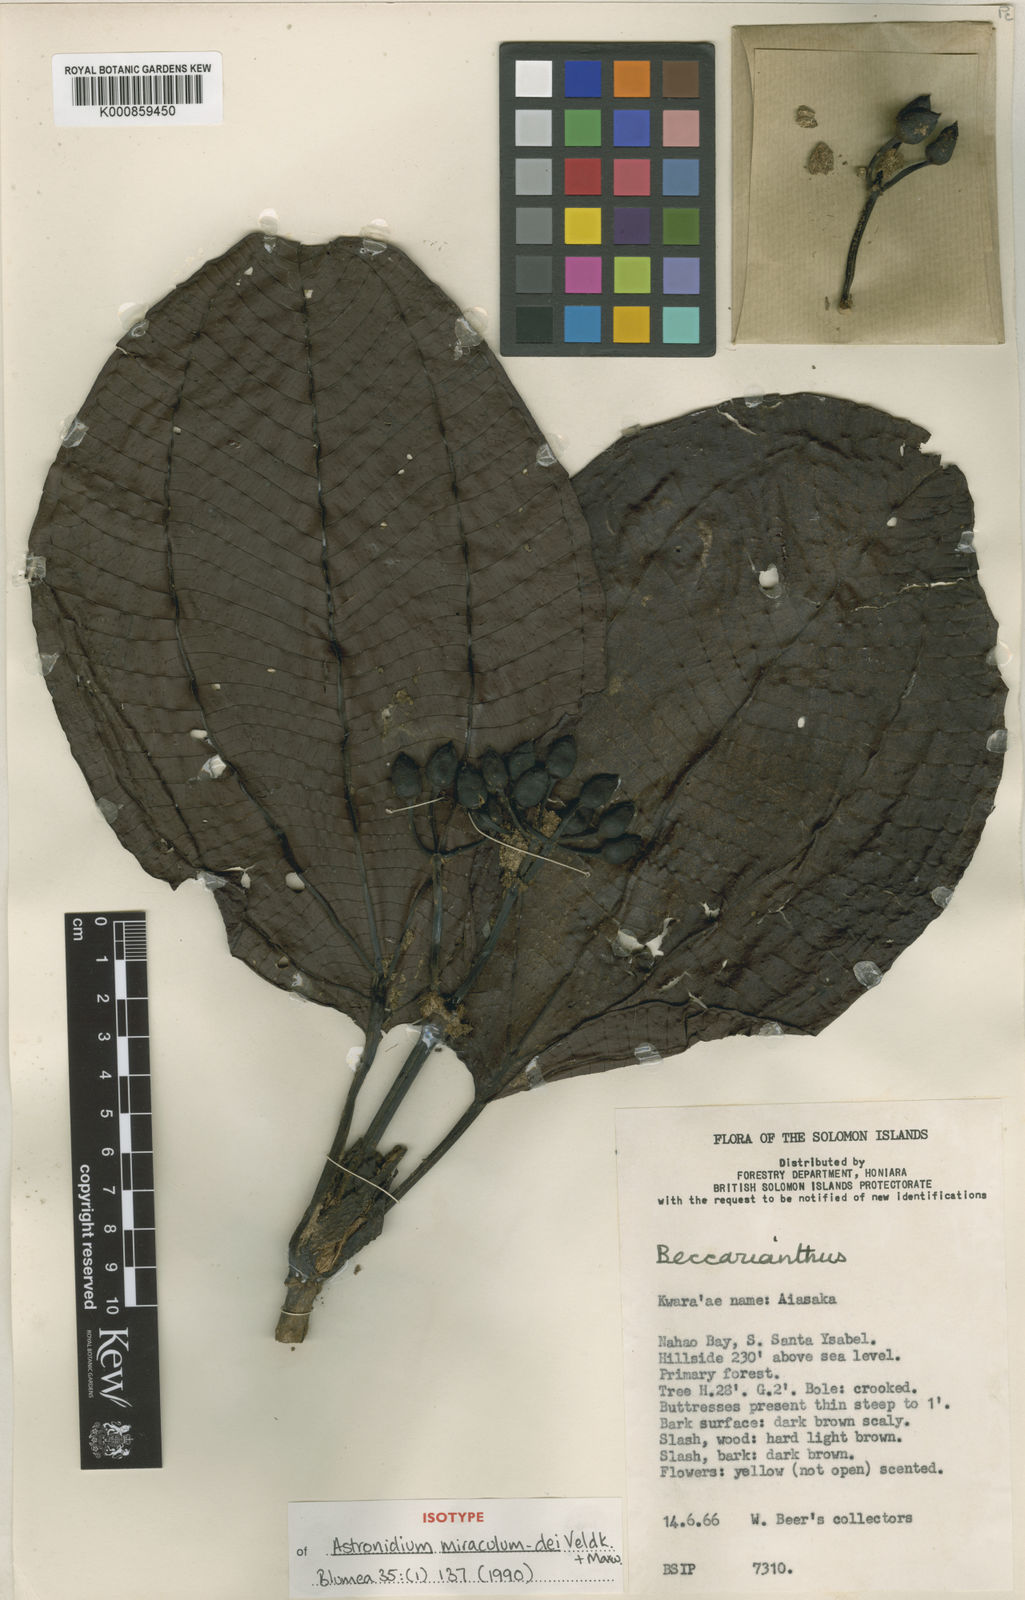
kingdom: Plantae
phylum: Tracheophyta
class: Magnoliopsida
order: Myrtales
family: Melastomataceae
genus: Astronidium
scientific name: Astronidium miraculum-dei
